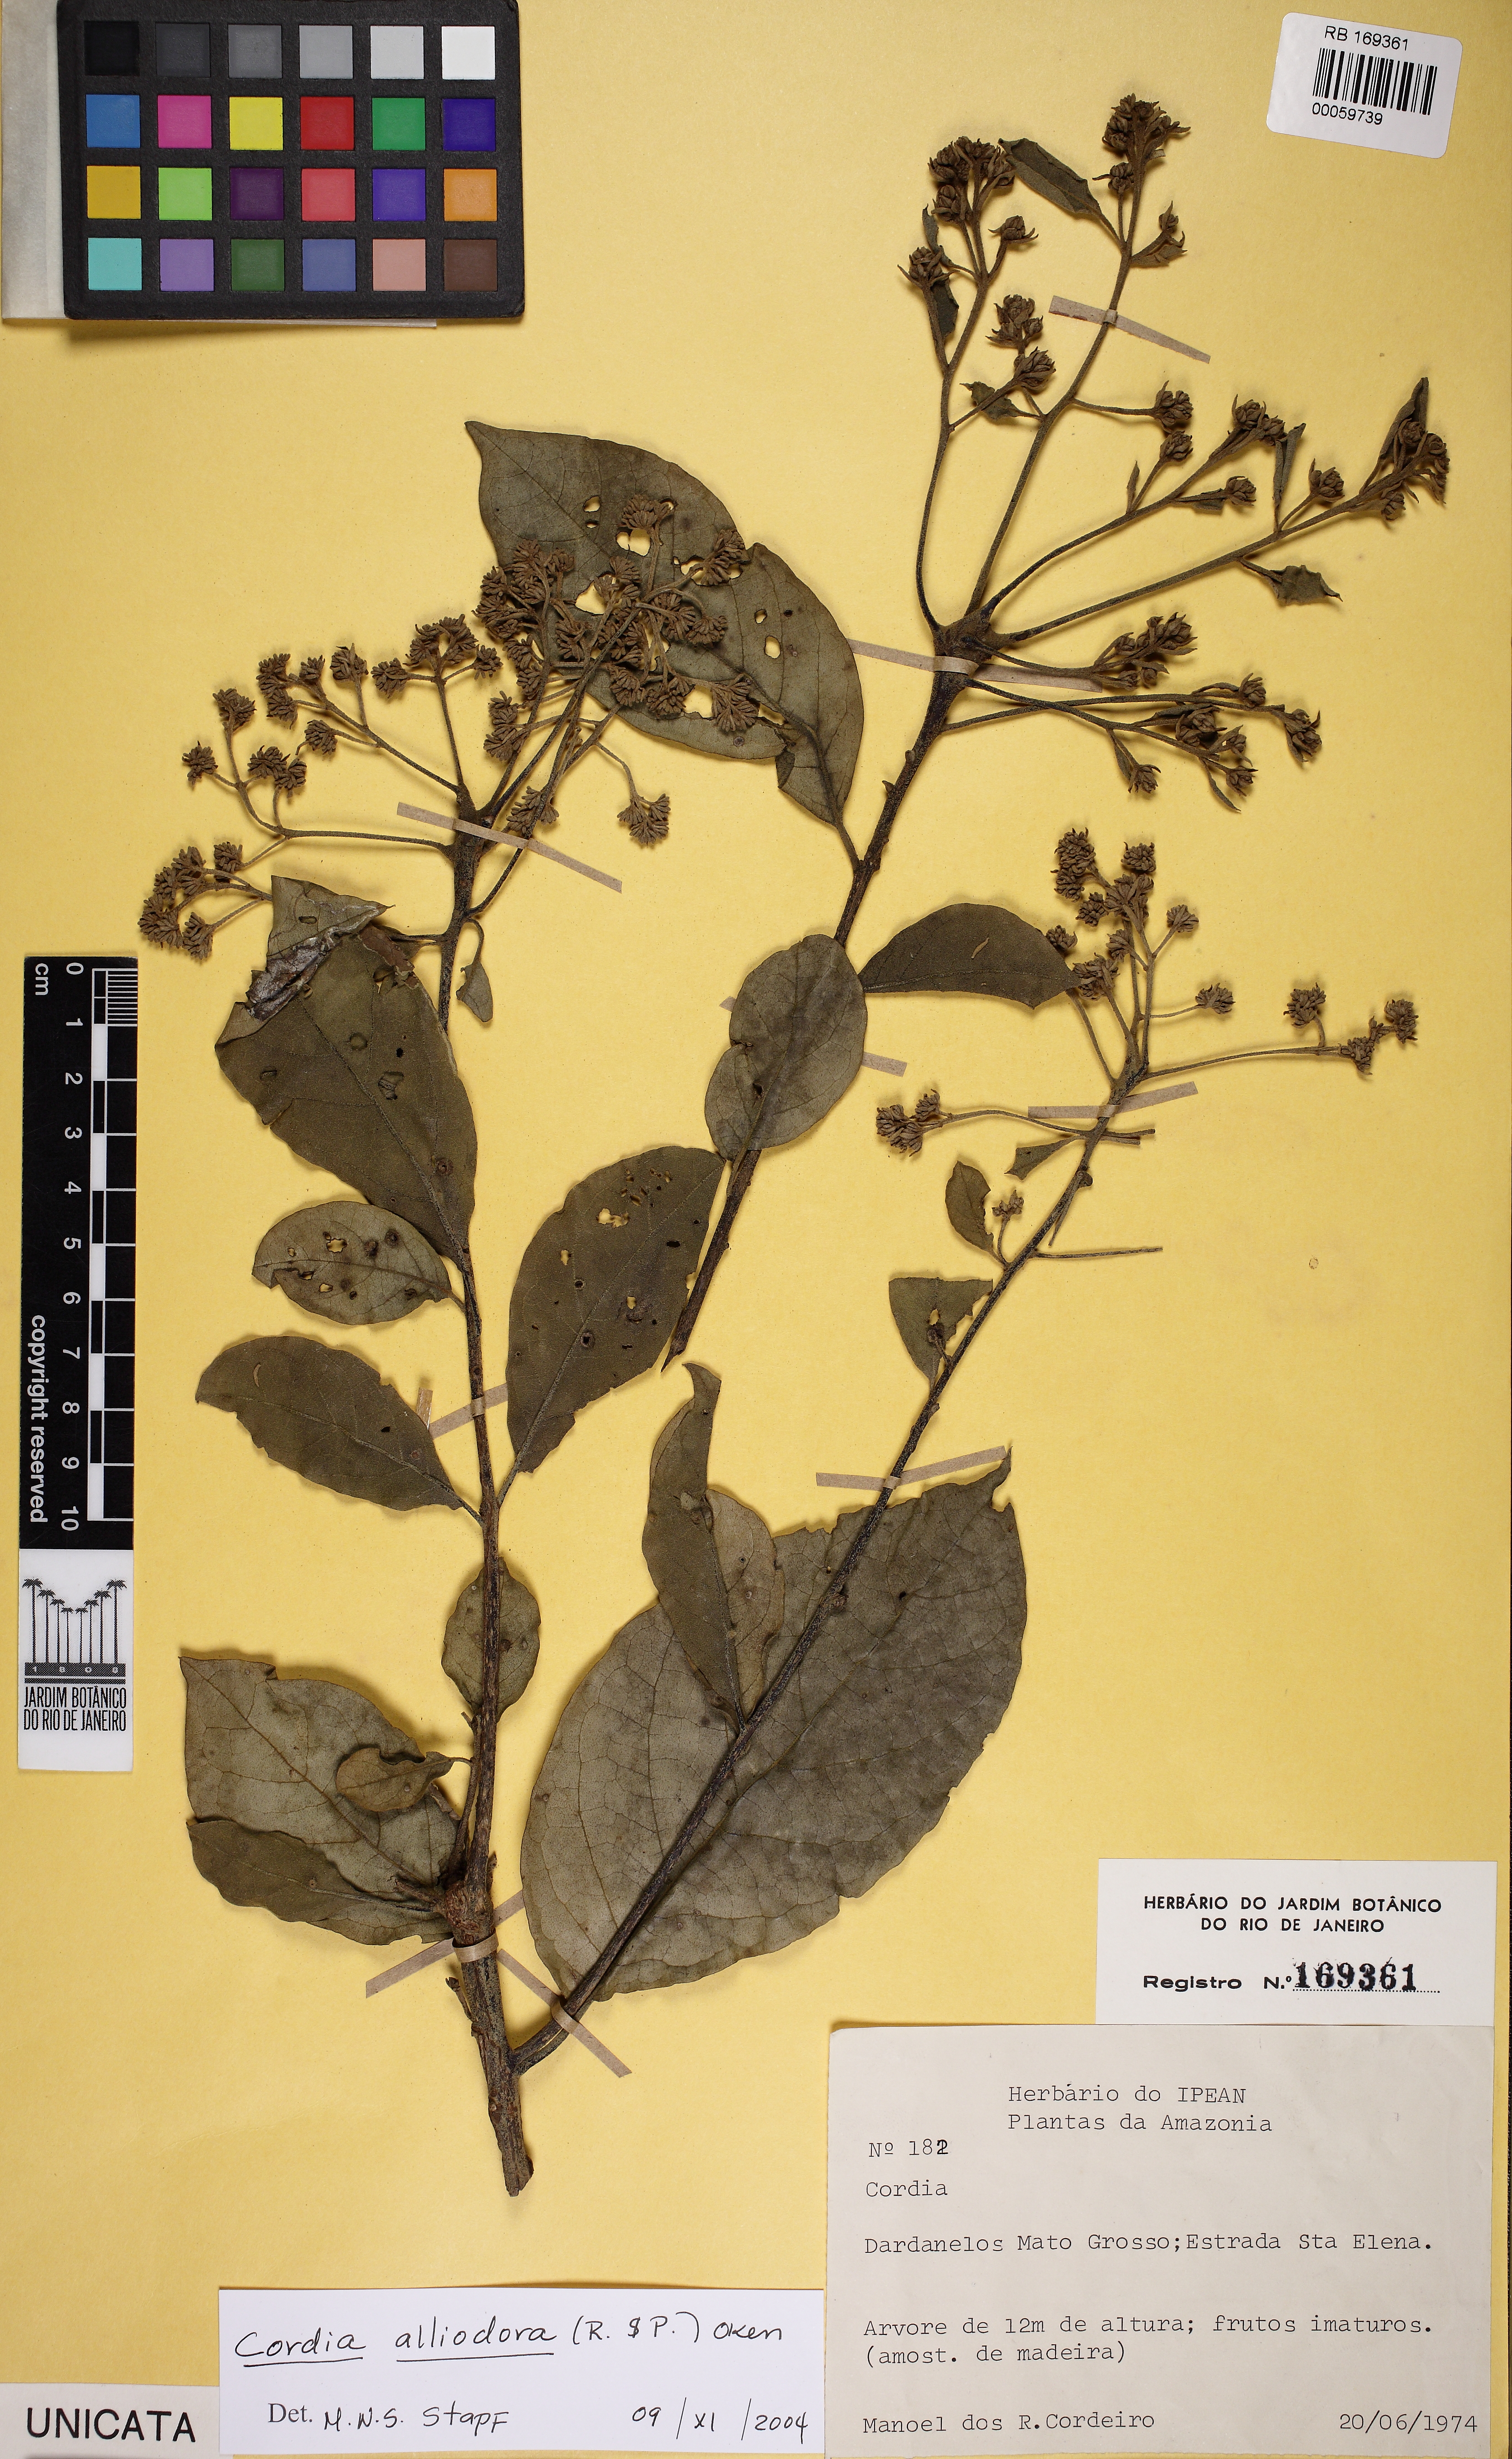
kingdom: Plantae
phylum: Tracheophyta
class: Magnoliopsida
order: Boraginales
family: Cordiaceae
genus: Cordia
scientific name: Cordia alliodora
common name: Spanish elm
